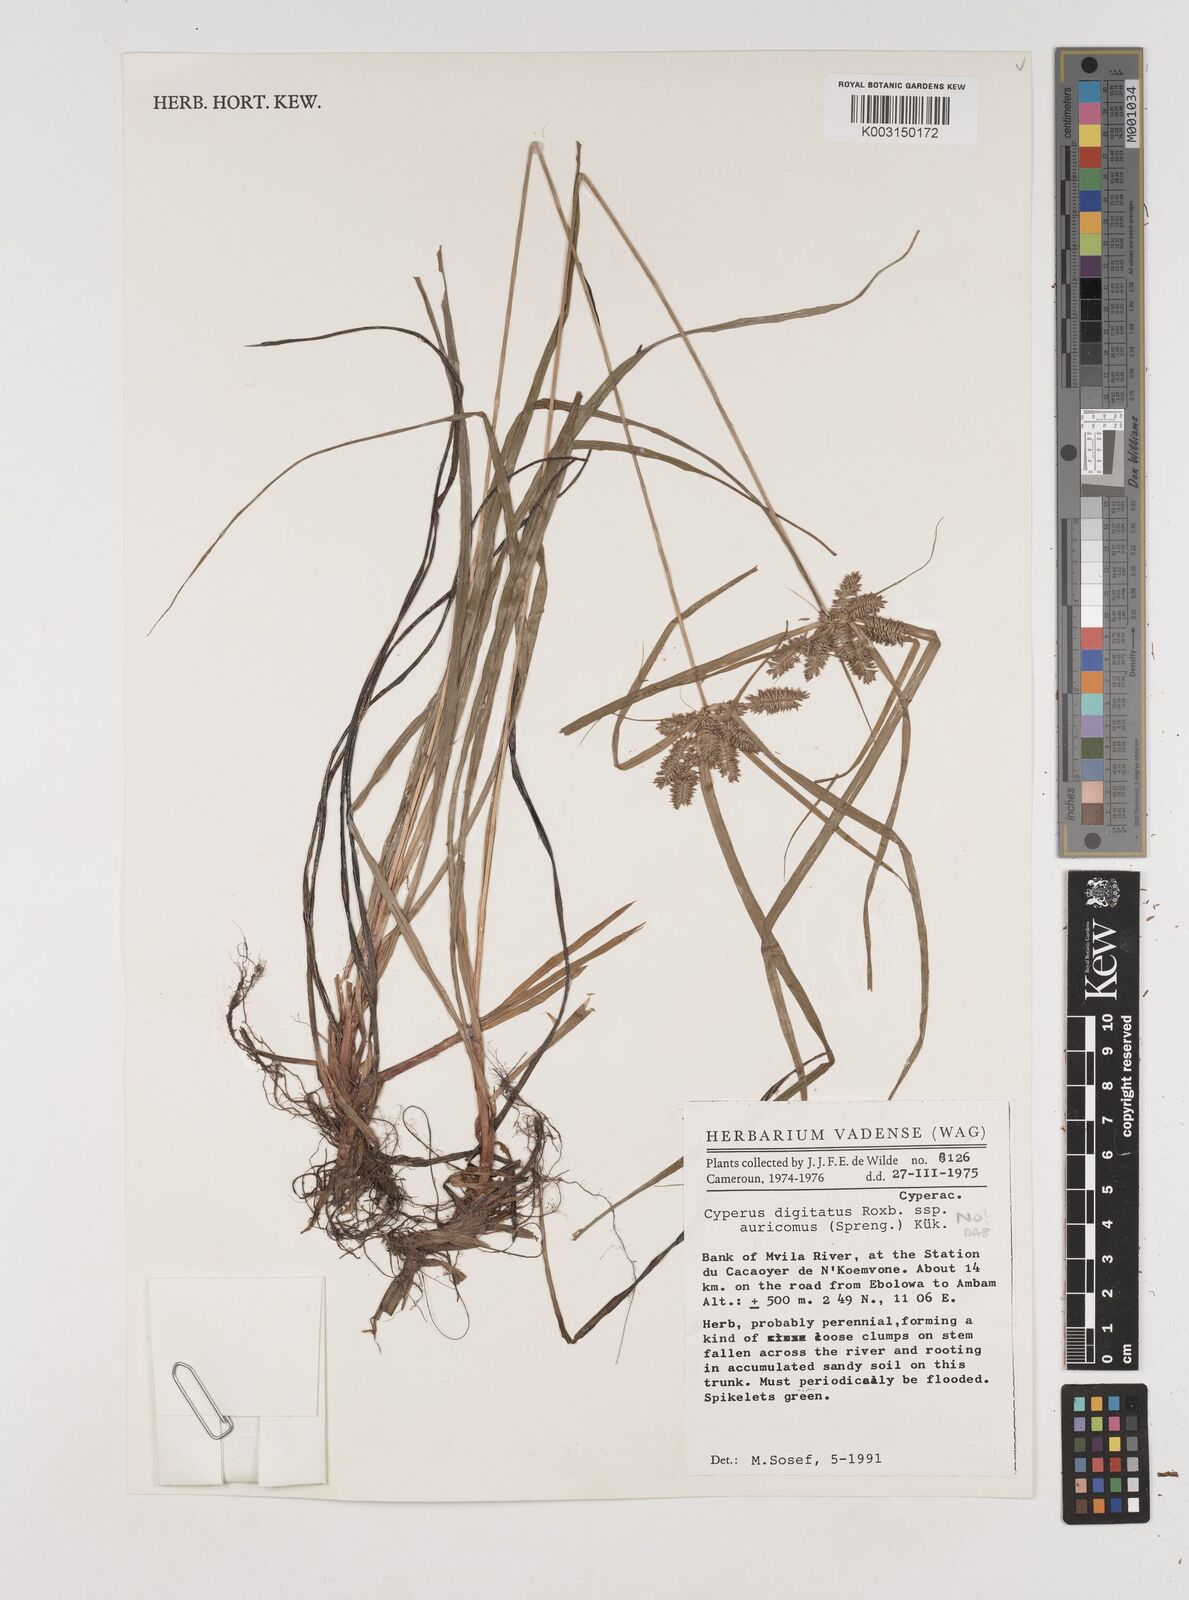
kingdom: Plantae
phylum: Tracheophyta
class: Liliopsida
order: Poales
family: Cyperaceae
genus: Cyperus
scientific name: Cyperus
